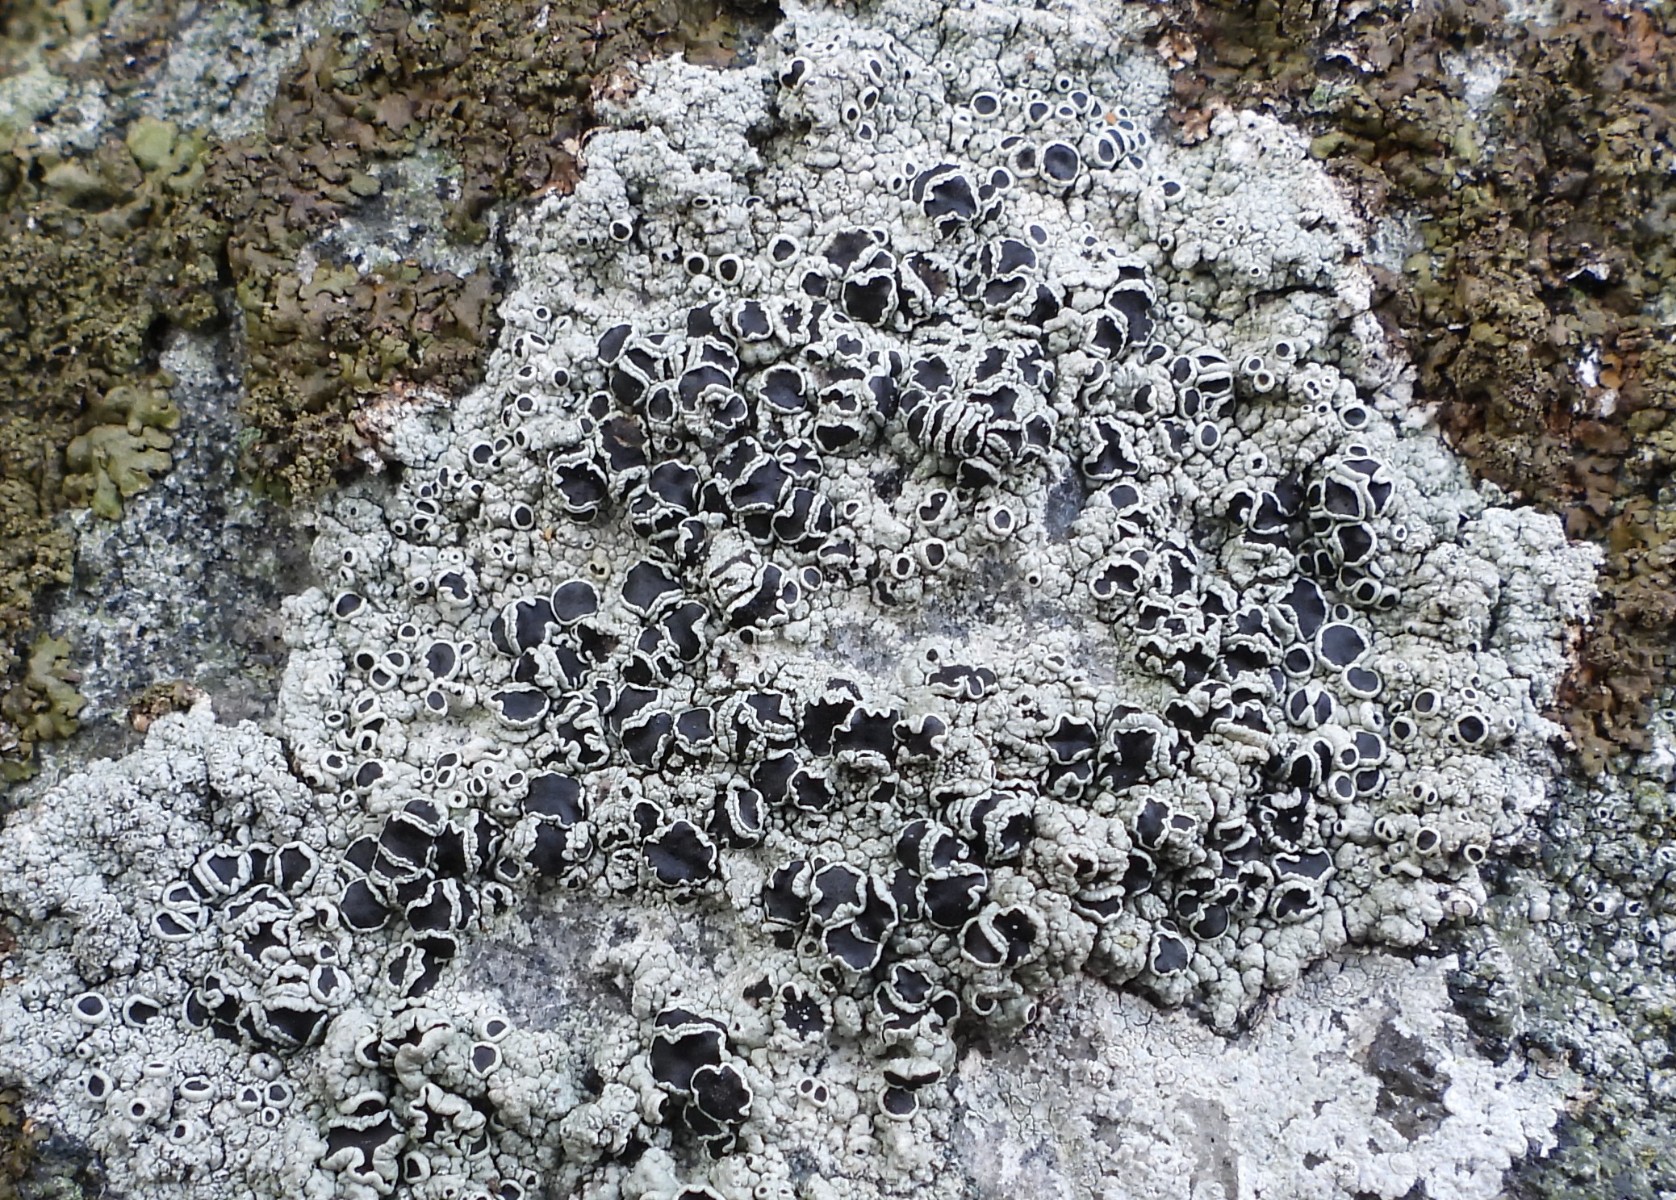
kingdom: Fungi
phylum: Ascomycota
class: Lecanoromycetes
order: Lecanorales
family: Tephromelataceae
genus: Tephromela
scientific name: Tephromela atra
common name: sortfrugtet kantskivelav
